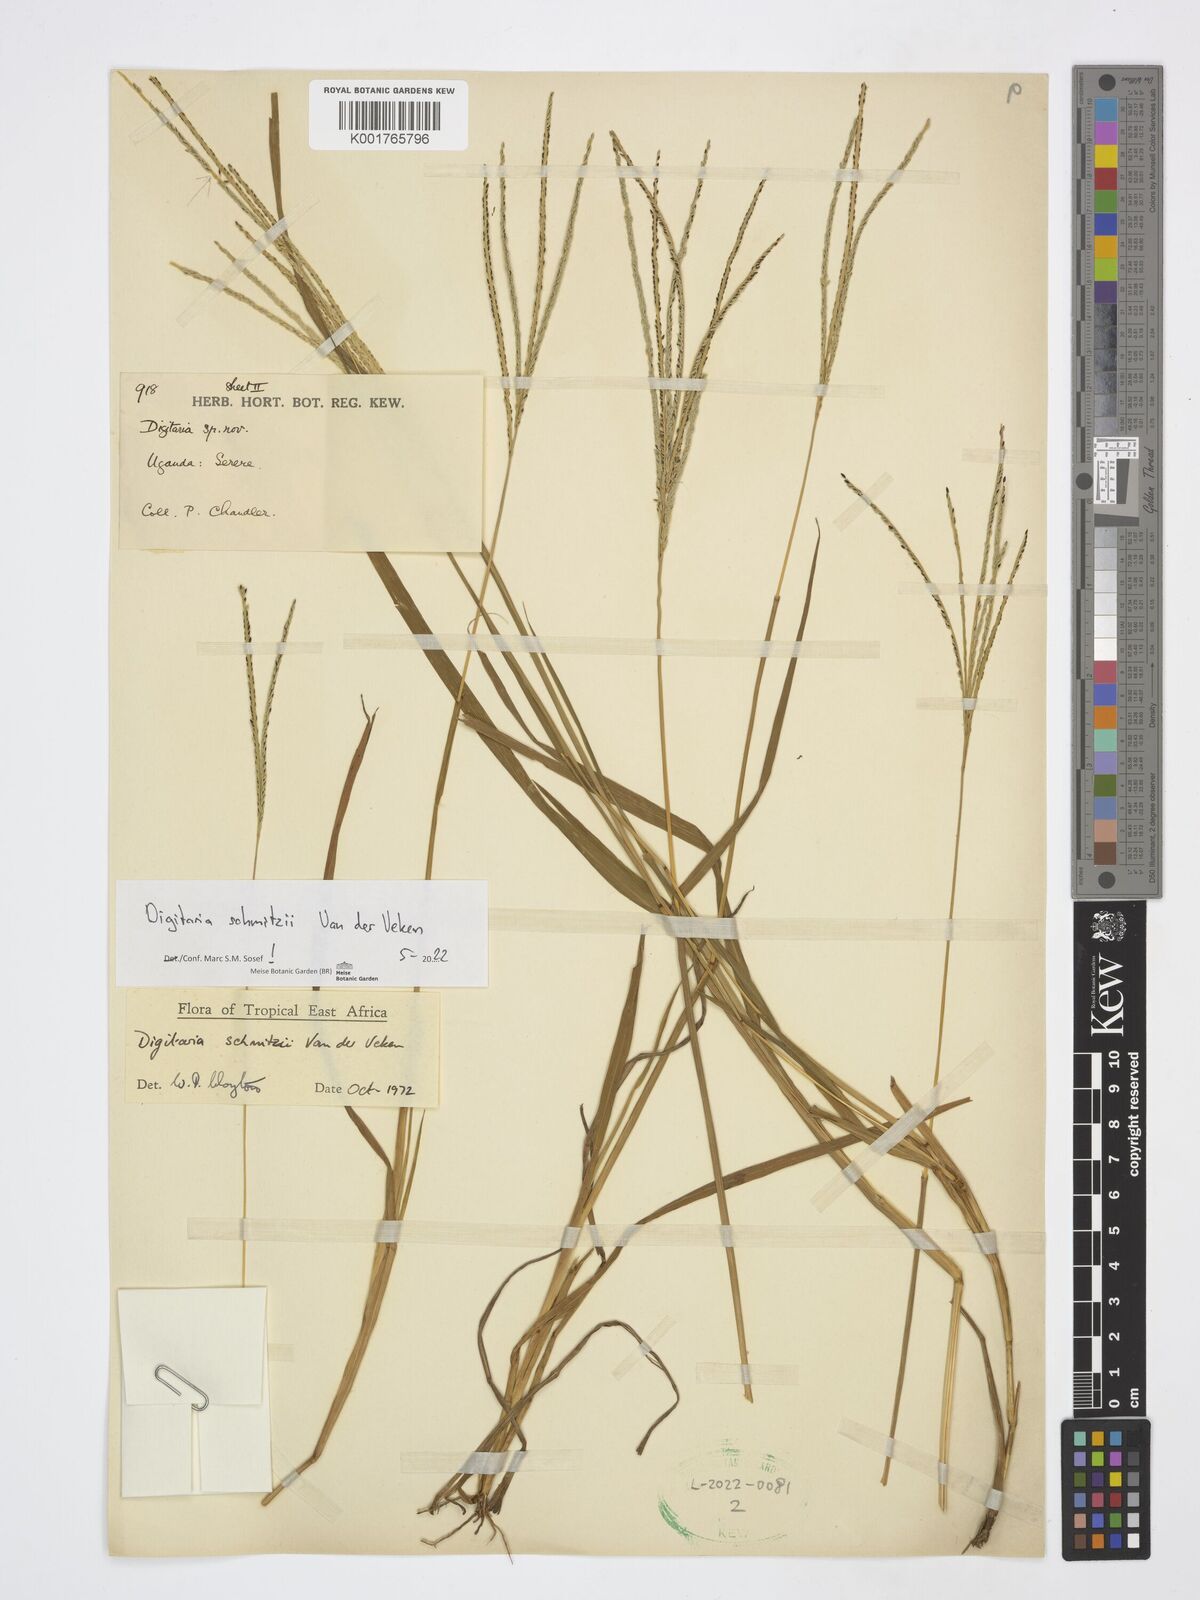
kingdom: Plantae
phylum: Tracheophyta
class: Liliopsida
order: Poales
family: Poaceae
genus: Digitaria
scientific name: Digitaria schmitzii
